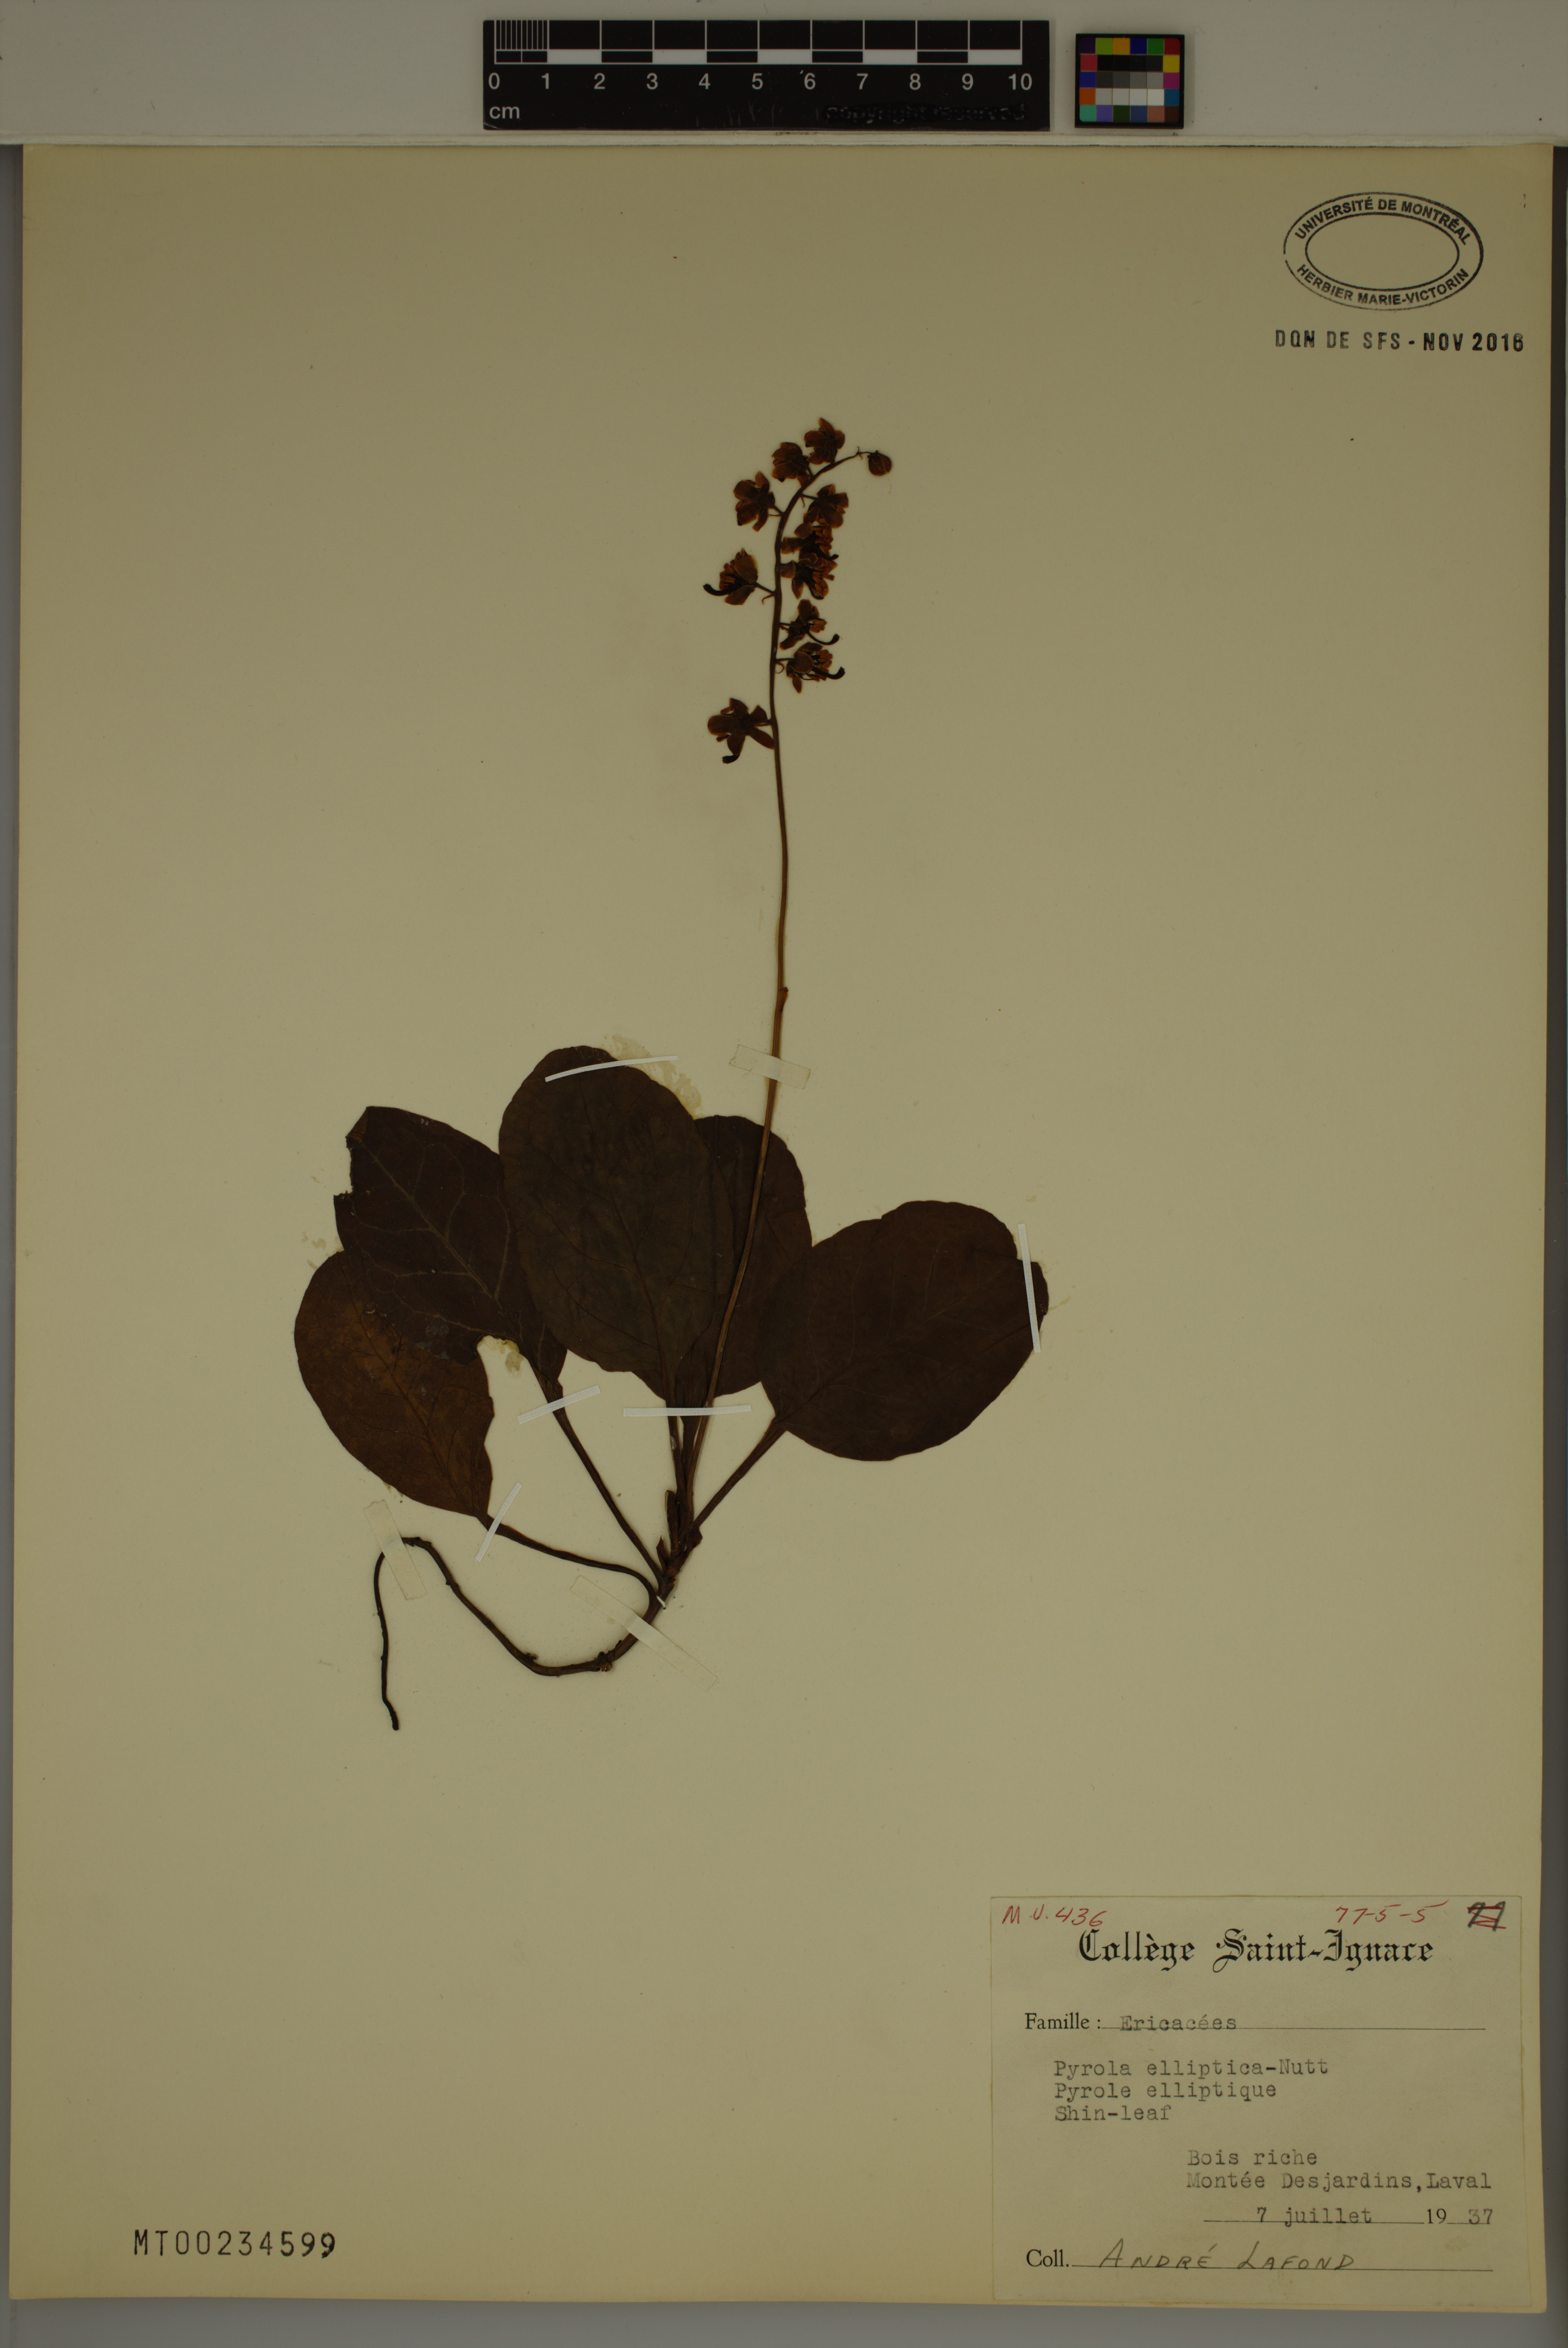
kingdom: Plantae
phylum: Tracheophyta
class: Magnoliopsida
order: Ericales
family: Ericaceae
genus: Pyrola
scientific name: Pyrola elliptica
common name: Shinleaf
